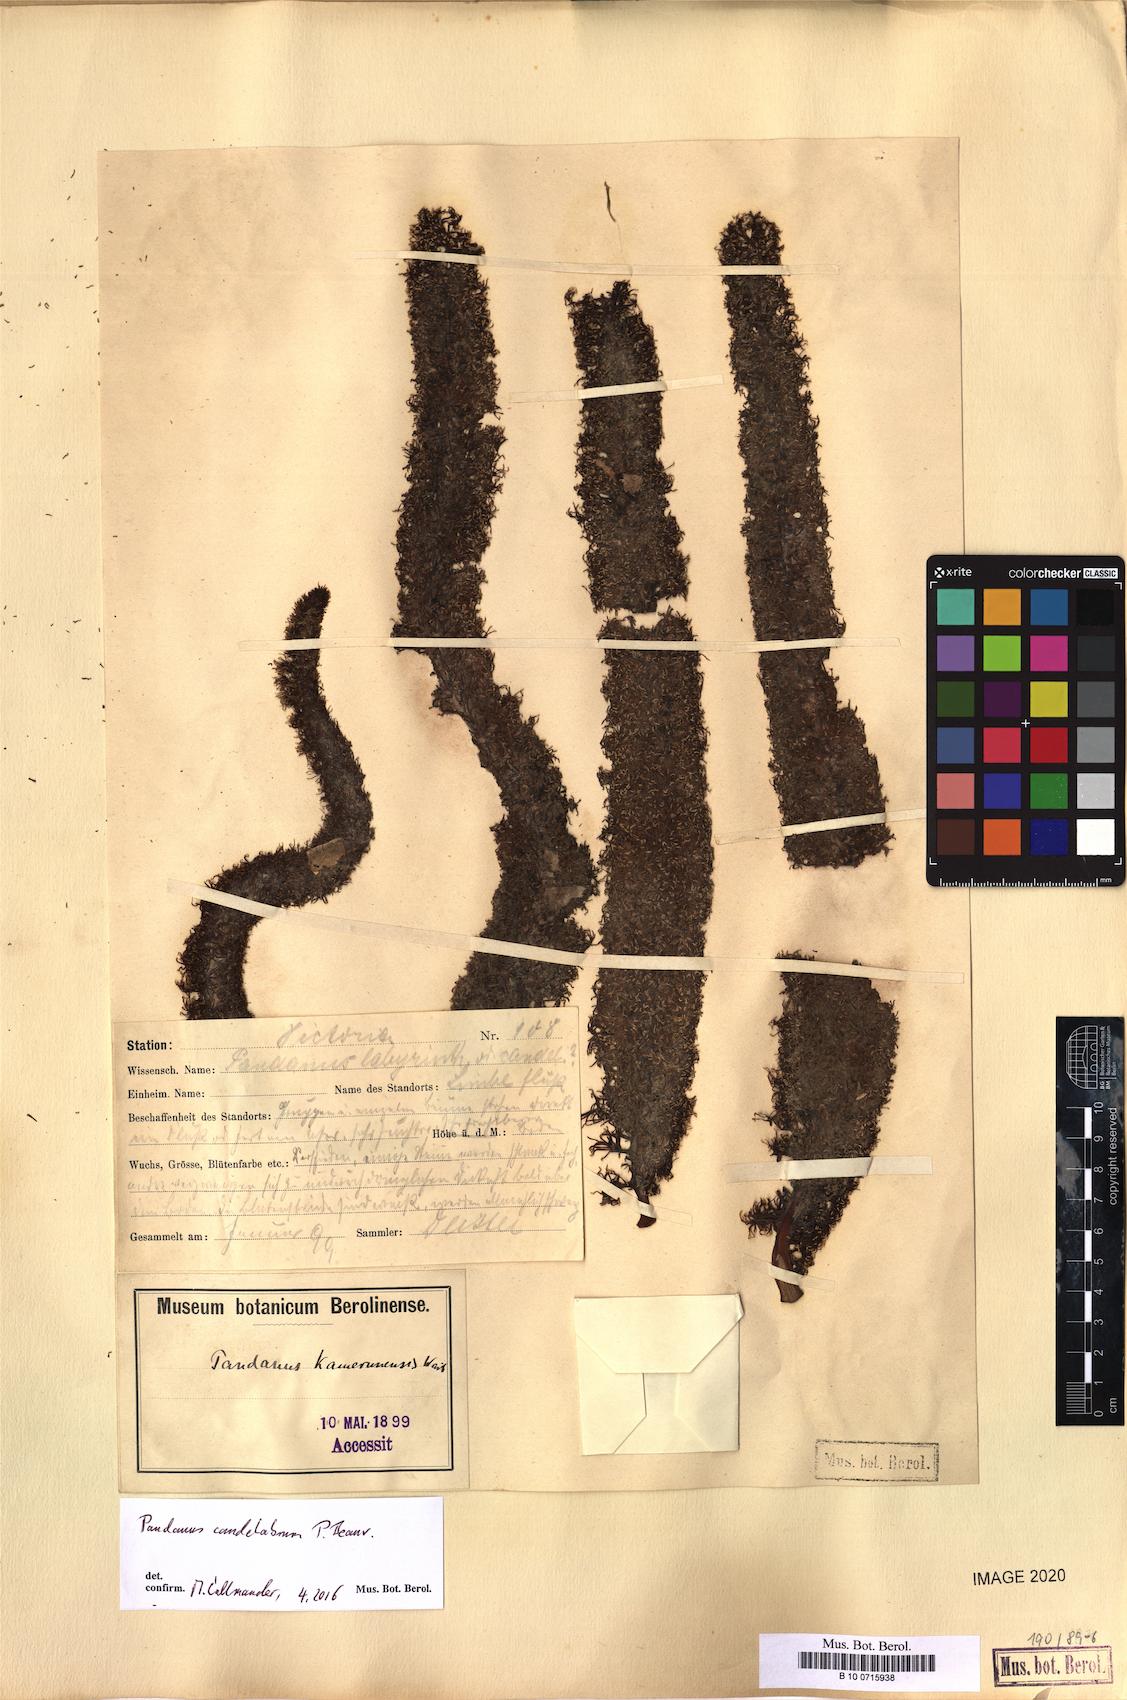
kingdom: Plantae
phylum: Tracheophyta
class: Liliopsida
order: Pandanales
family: Pandanaceae
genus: Pandanus
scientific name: Pandanus candelabrum
